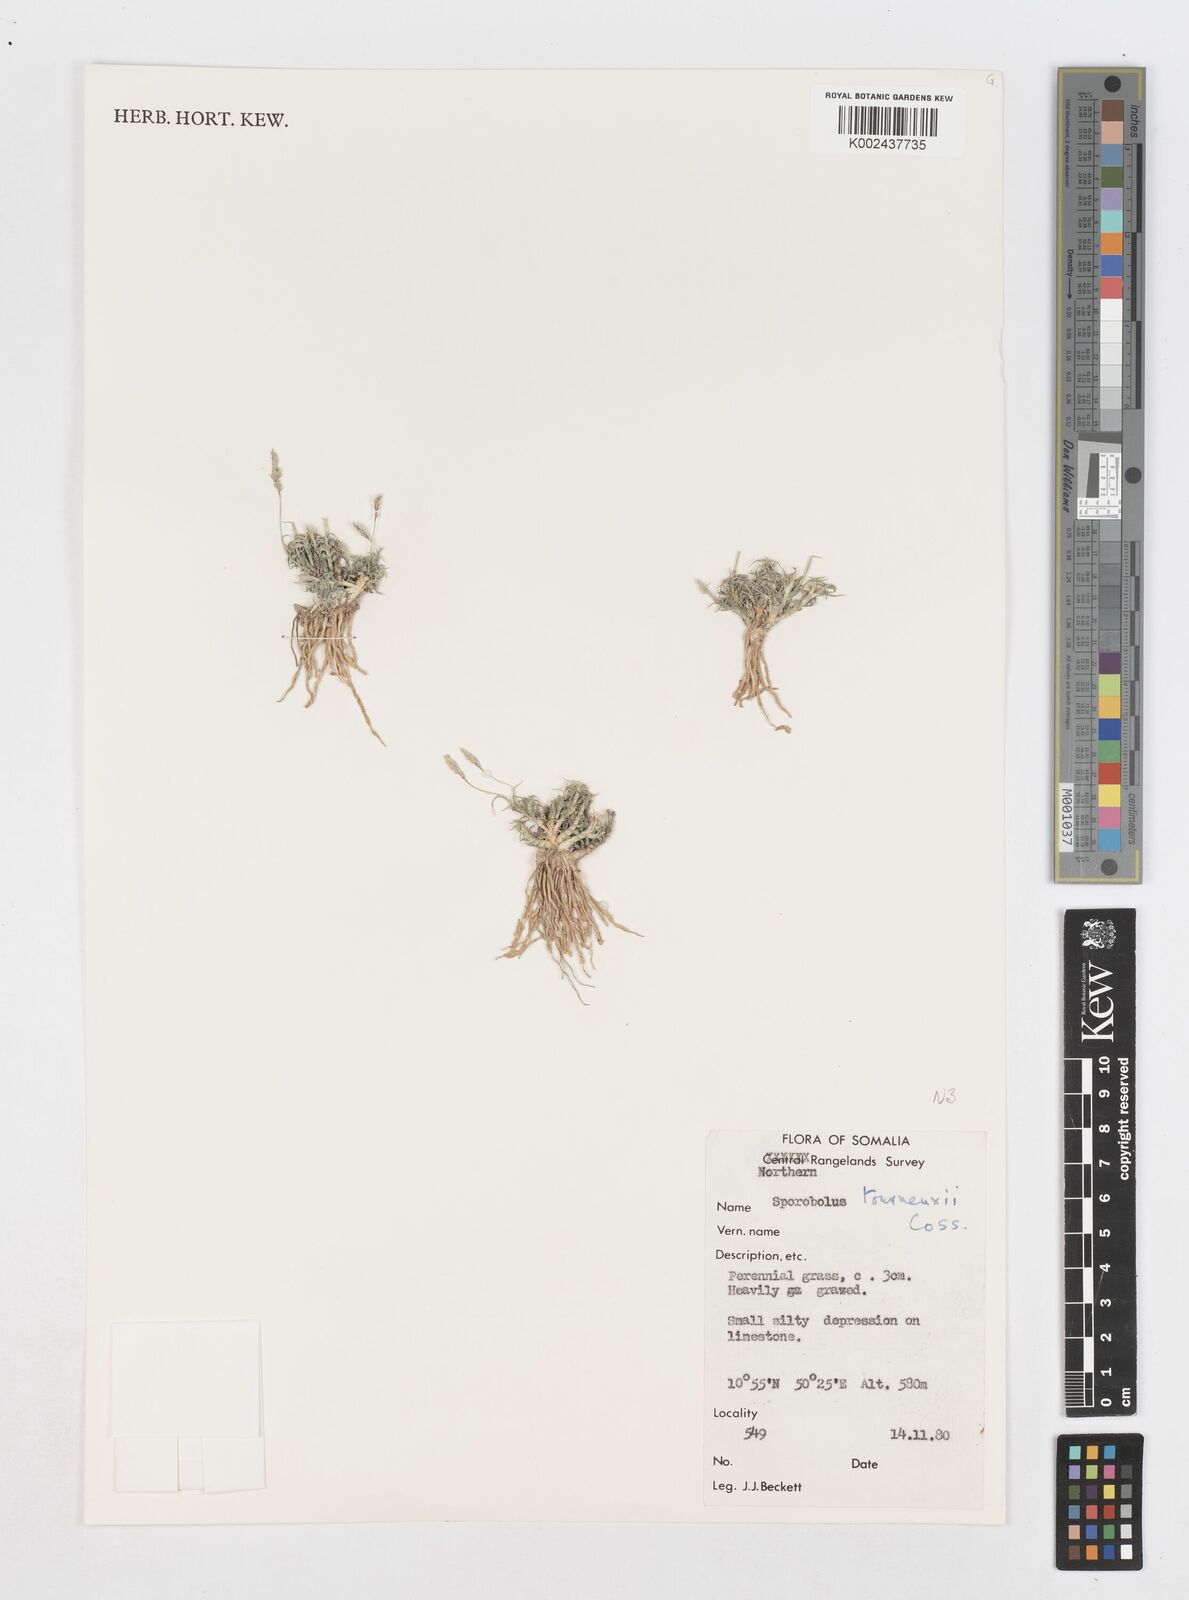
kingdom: Plantae
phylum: Tracheophyta
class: Liliopsida
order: Poales
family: Poaceae
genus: Sporobolus
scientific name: Sporobolus tourneuxii
